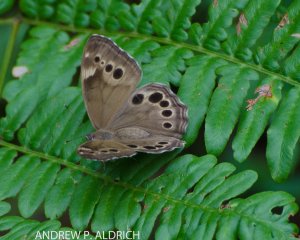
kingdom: Animalia
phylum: Arthropoda
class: Insecta
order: Lepidoptera
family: Nymphalidae
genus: Lethe
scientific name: Lethe anthedon
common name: Northern Pearly-Eye
